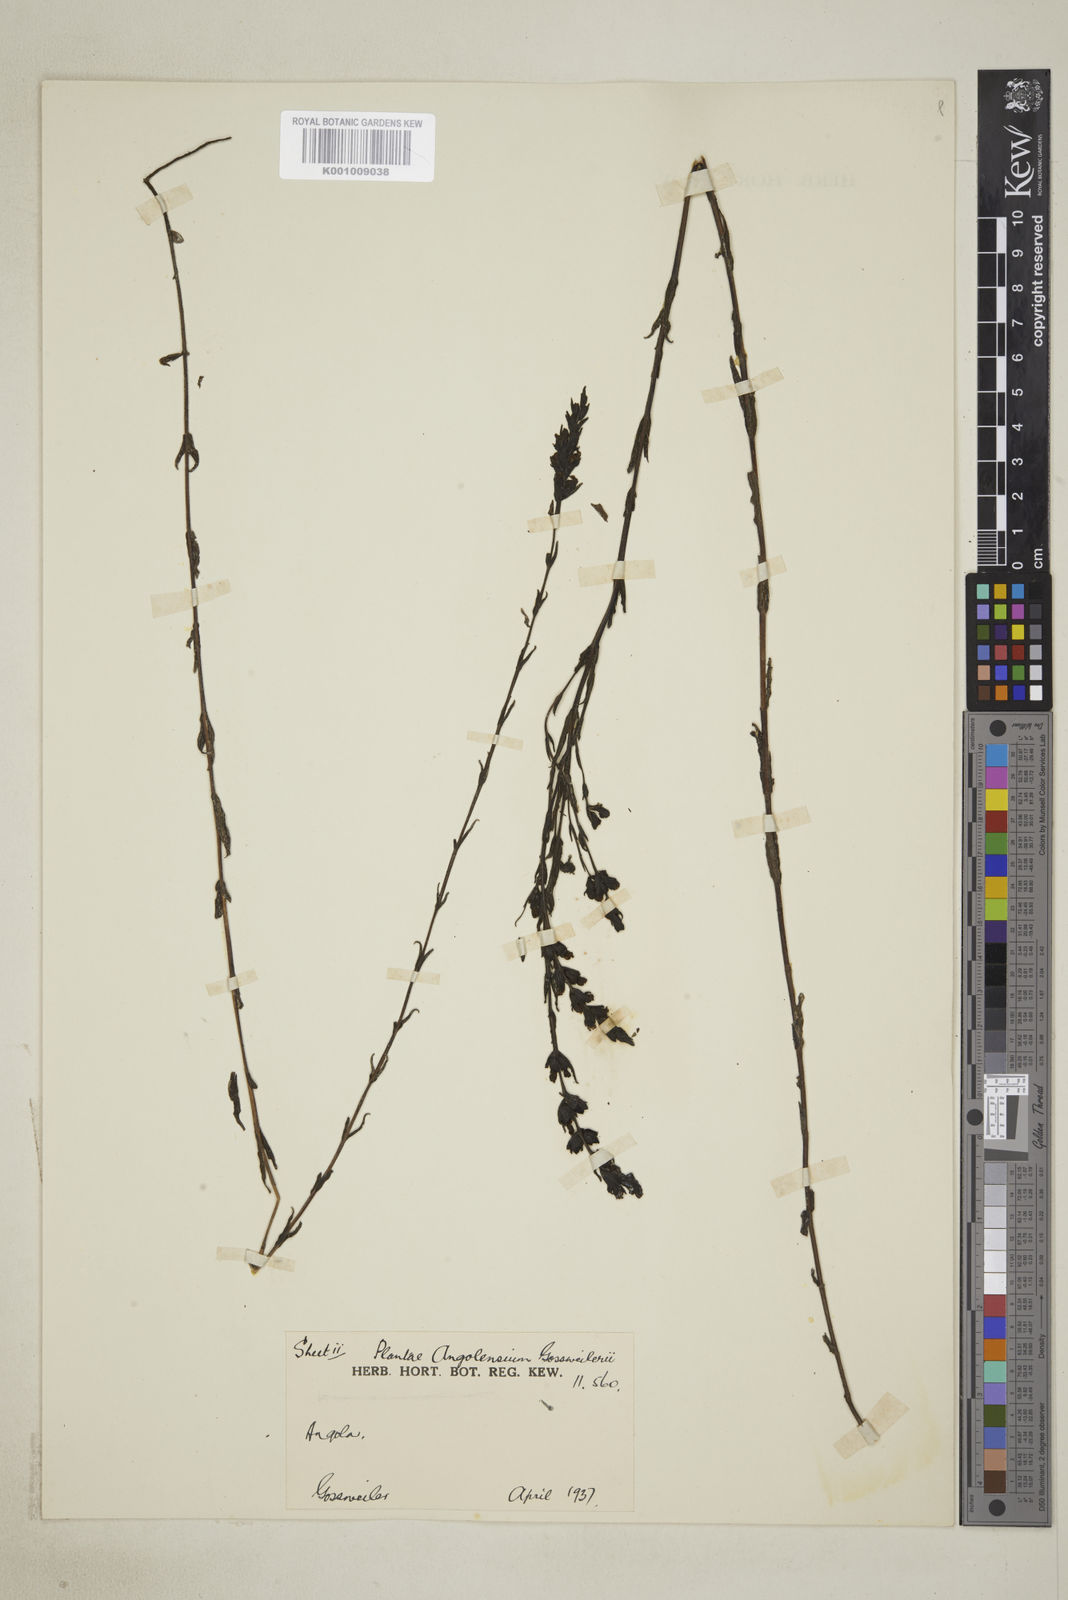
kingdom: Plantae
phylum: Tracheophyta
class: Magnoliopsida
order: Lamiales
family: Orobanchaceae
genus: Alectra
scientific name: Alectra rigida
